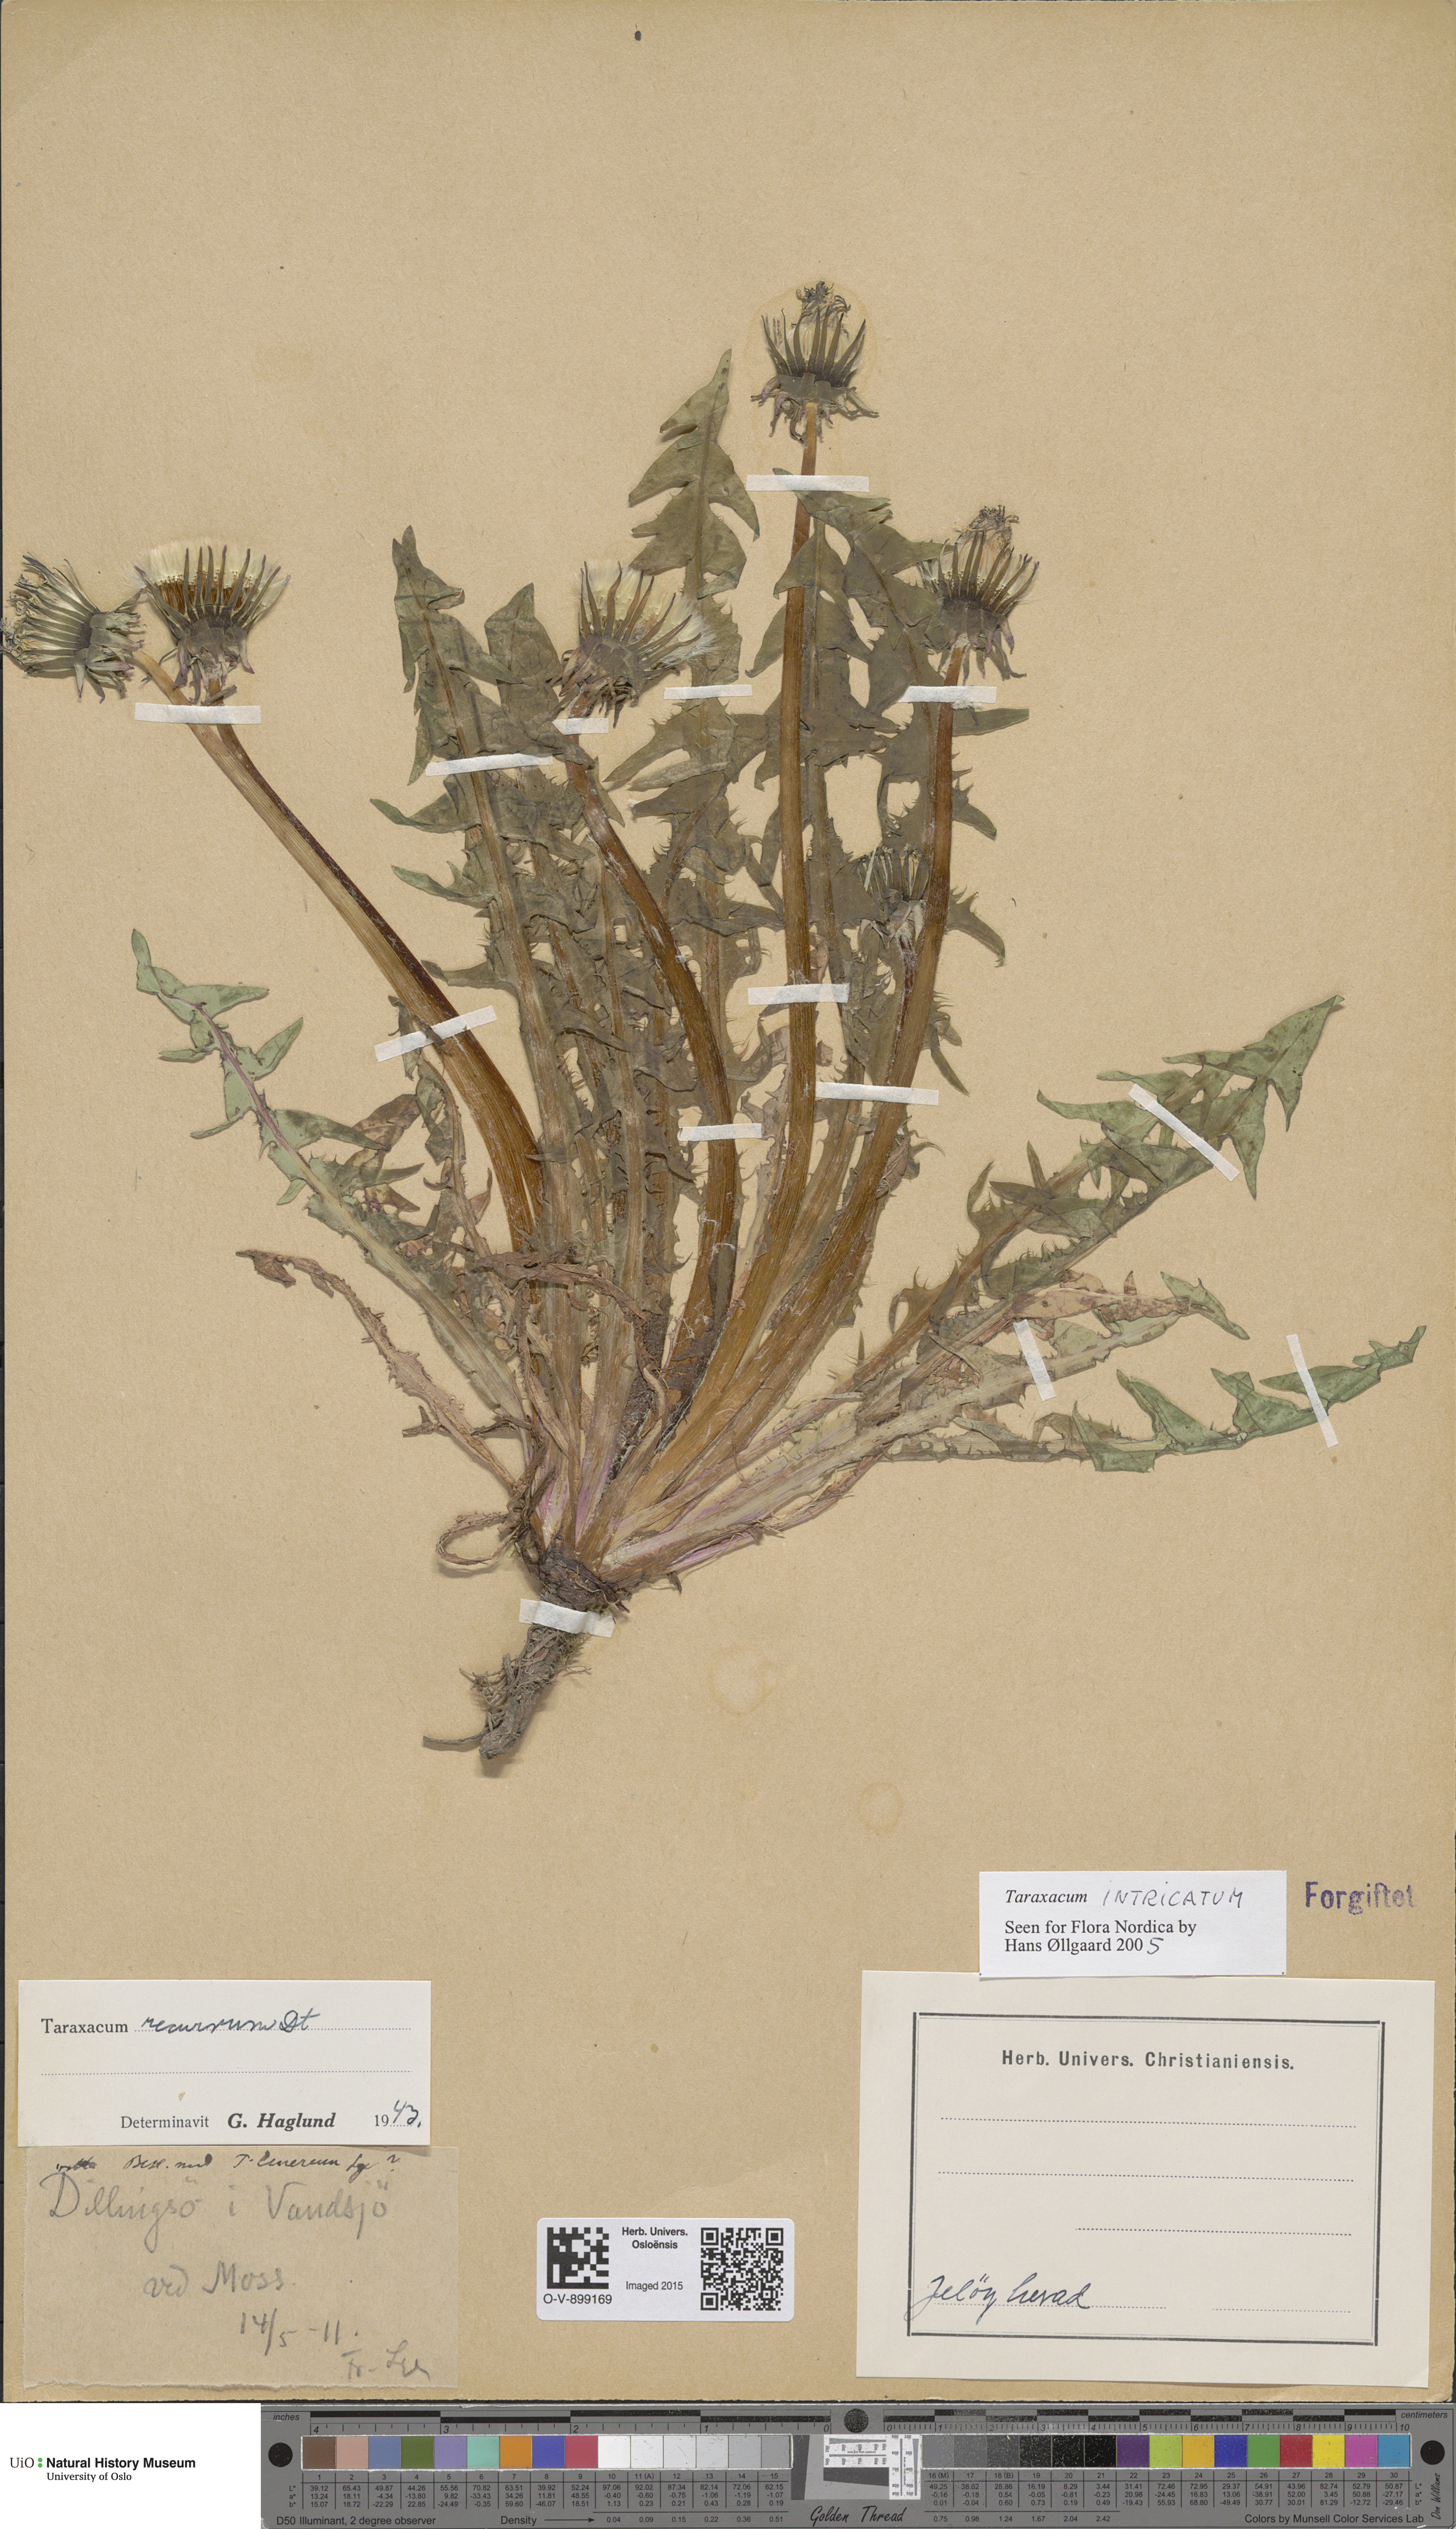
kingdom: Plantae
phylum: Tracheophyta
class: Magnoliopsida
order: Asterales
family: Asteraceae
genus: Taraxacum
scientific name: Taraxacum recurvum
